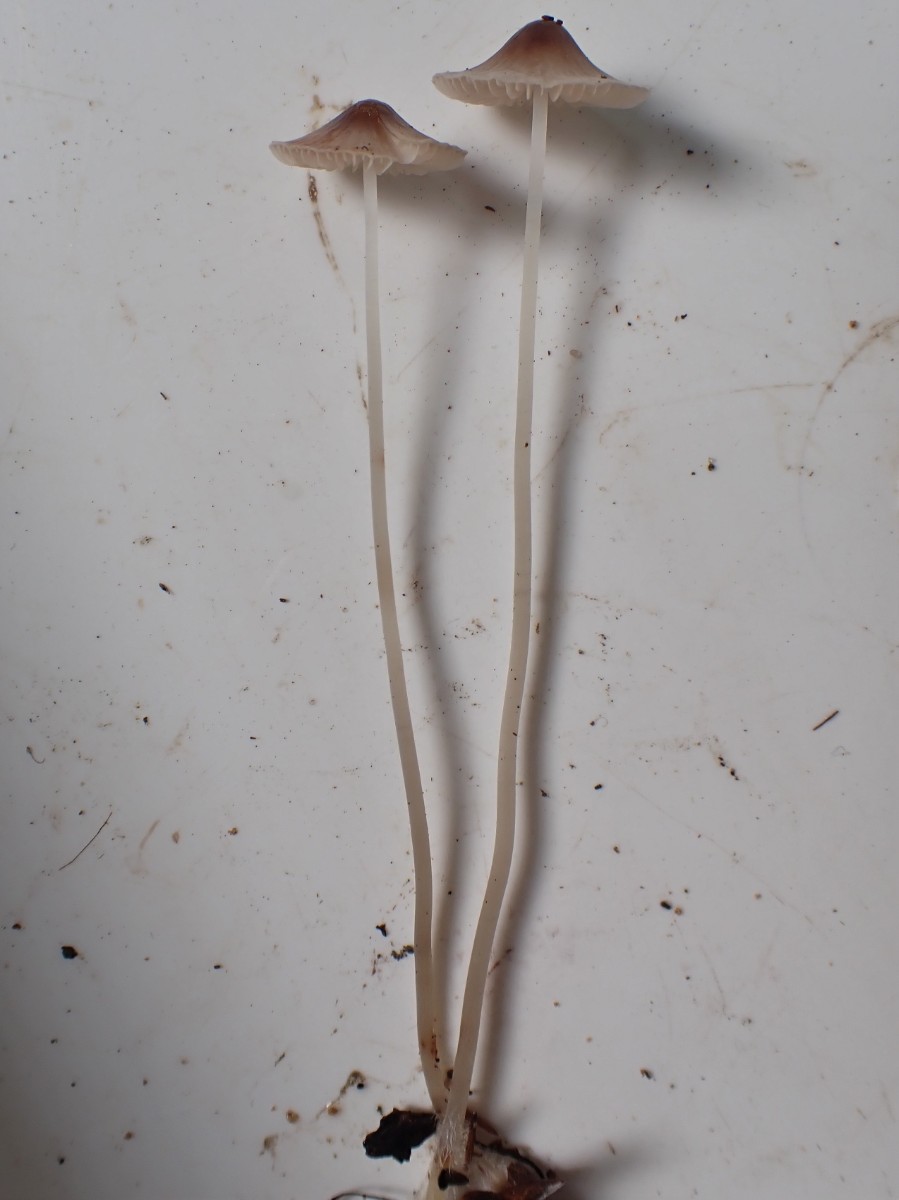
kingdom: Fungi
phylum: Basidiomycota
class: Agaricomycetes
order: Agaricales
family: Mycenaceae
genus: Mycena
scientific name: Mycena vitilis
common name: blankstokket huesvamp
